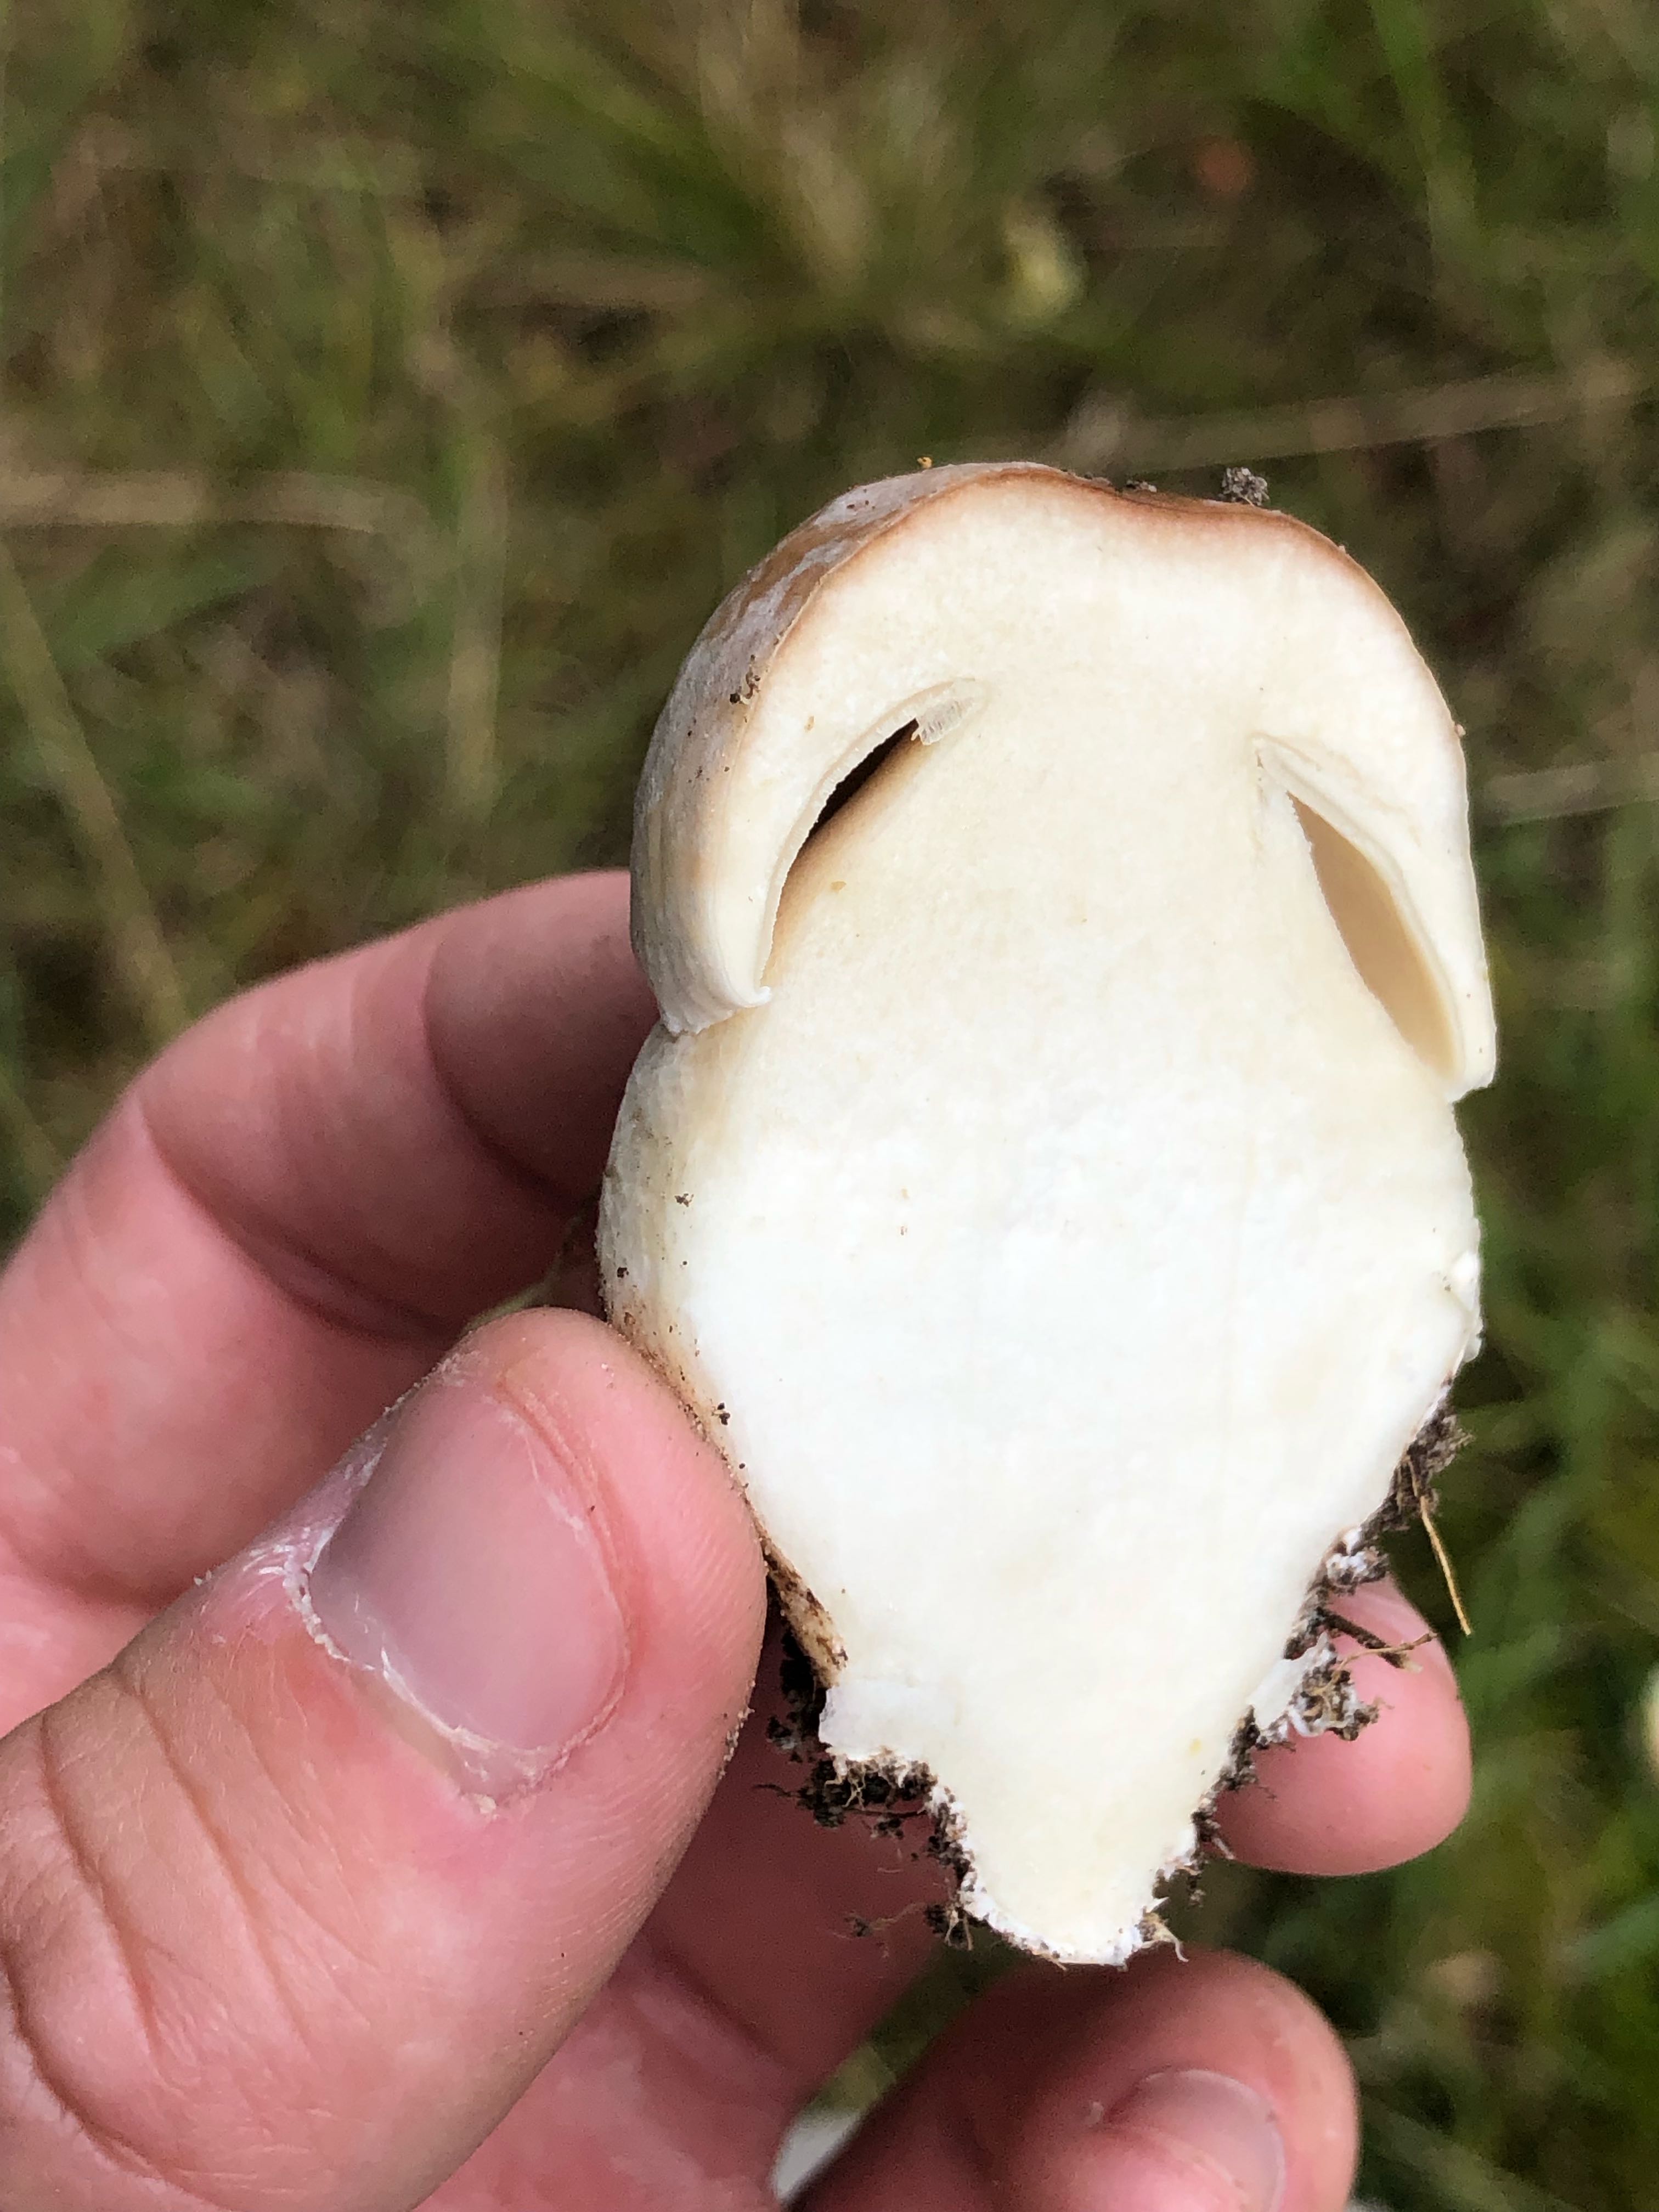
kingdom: Fungi
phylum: Basidiomycota
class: Agaricomycetes
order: Boletales
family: Boletaceae
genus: Boletus
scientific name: Boletus edulis
